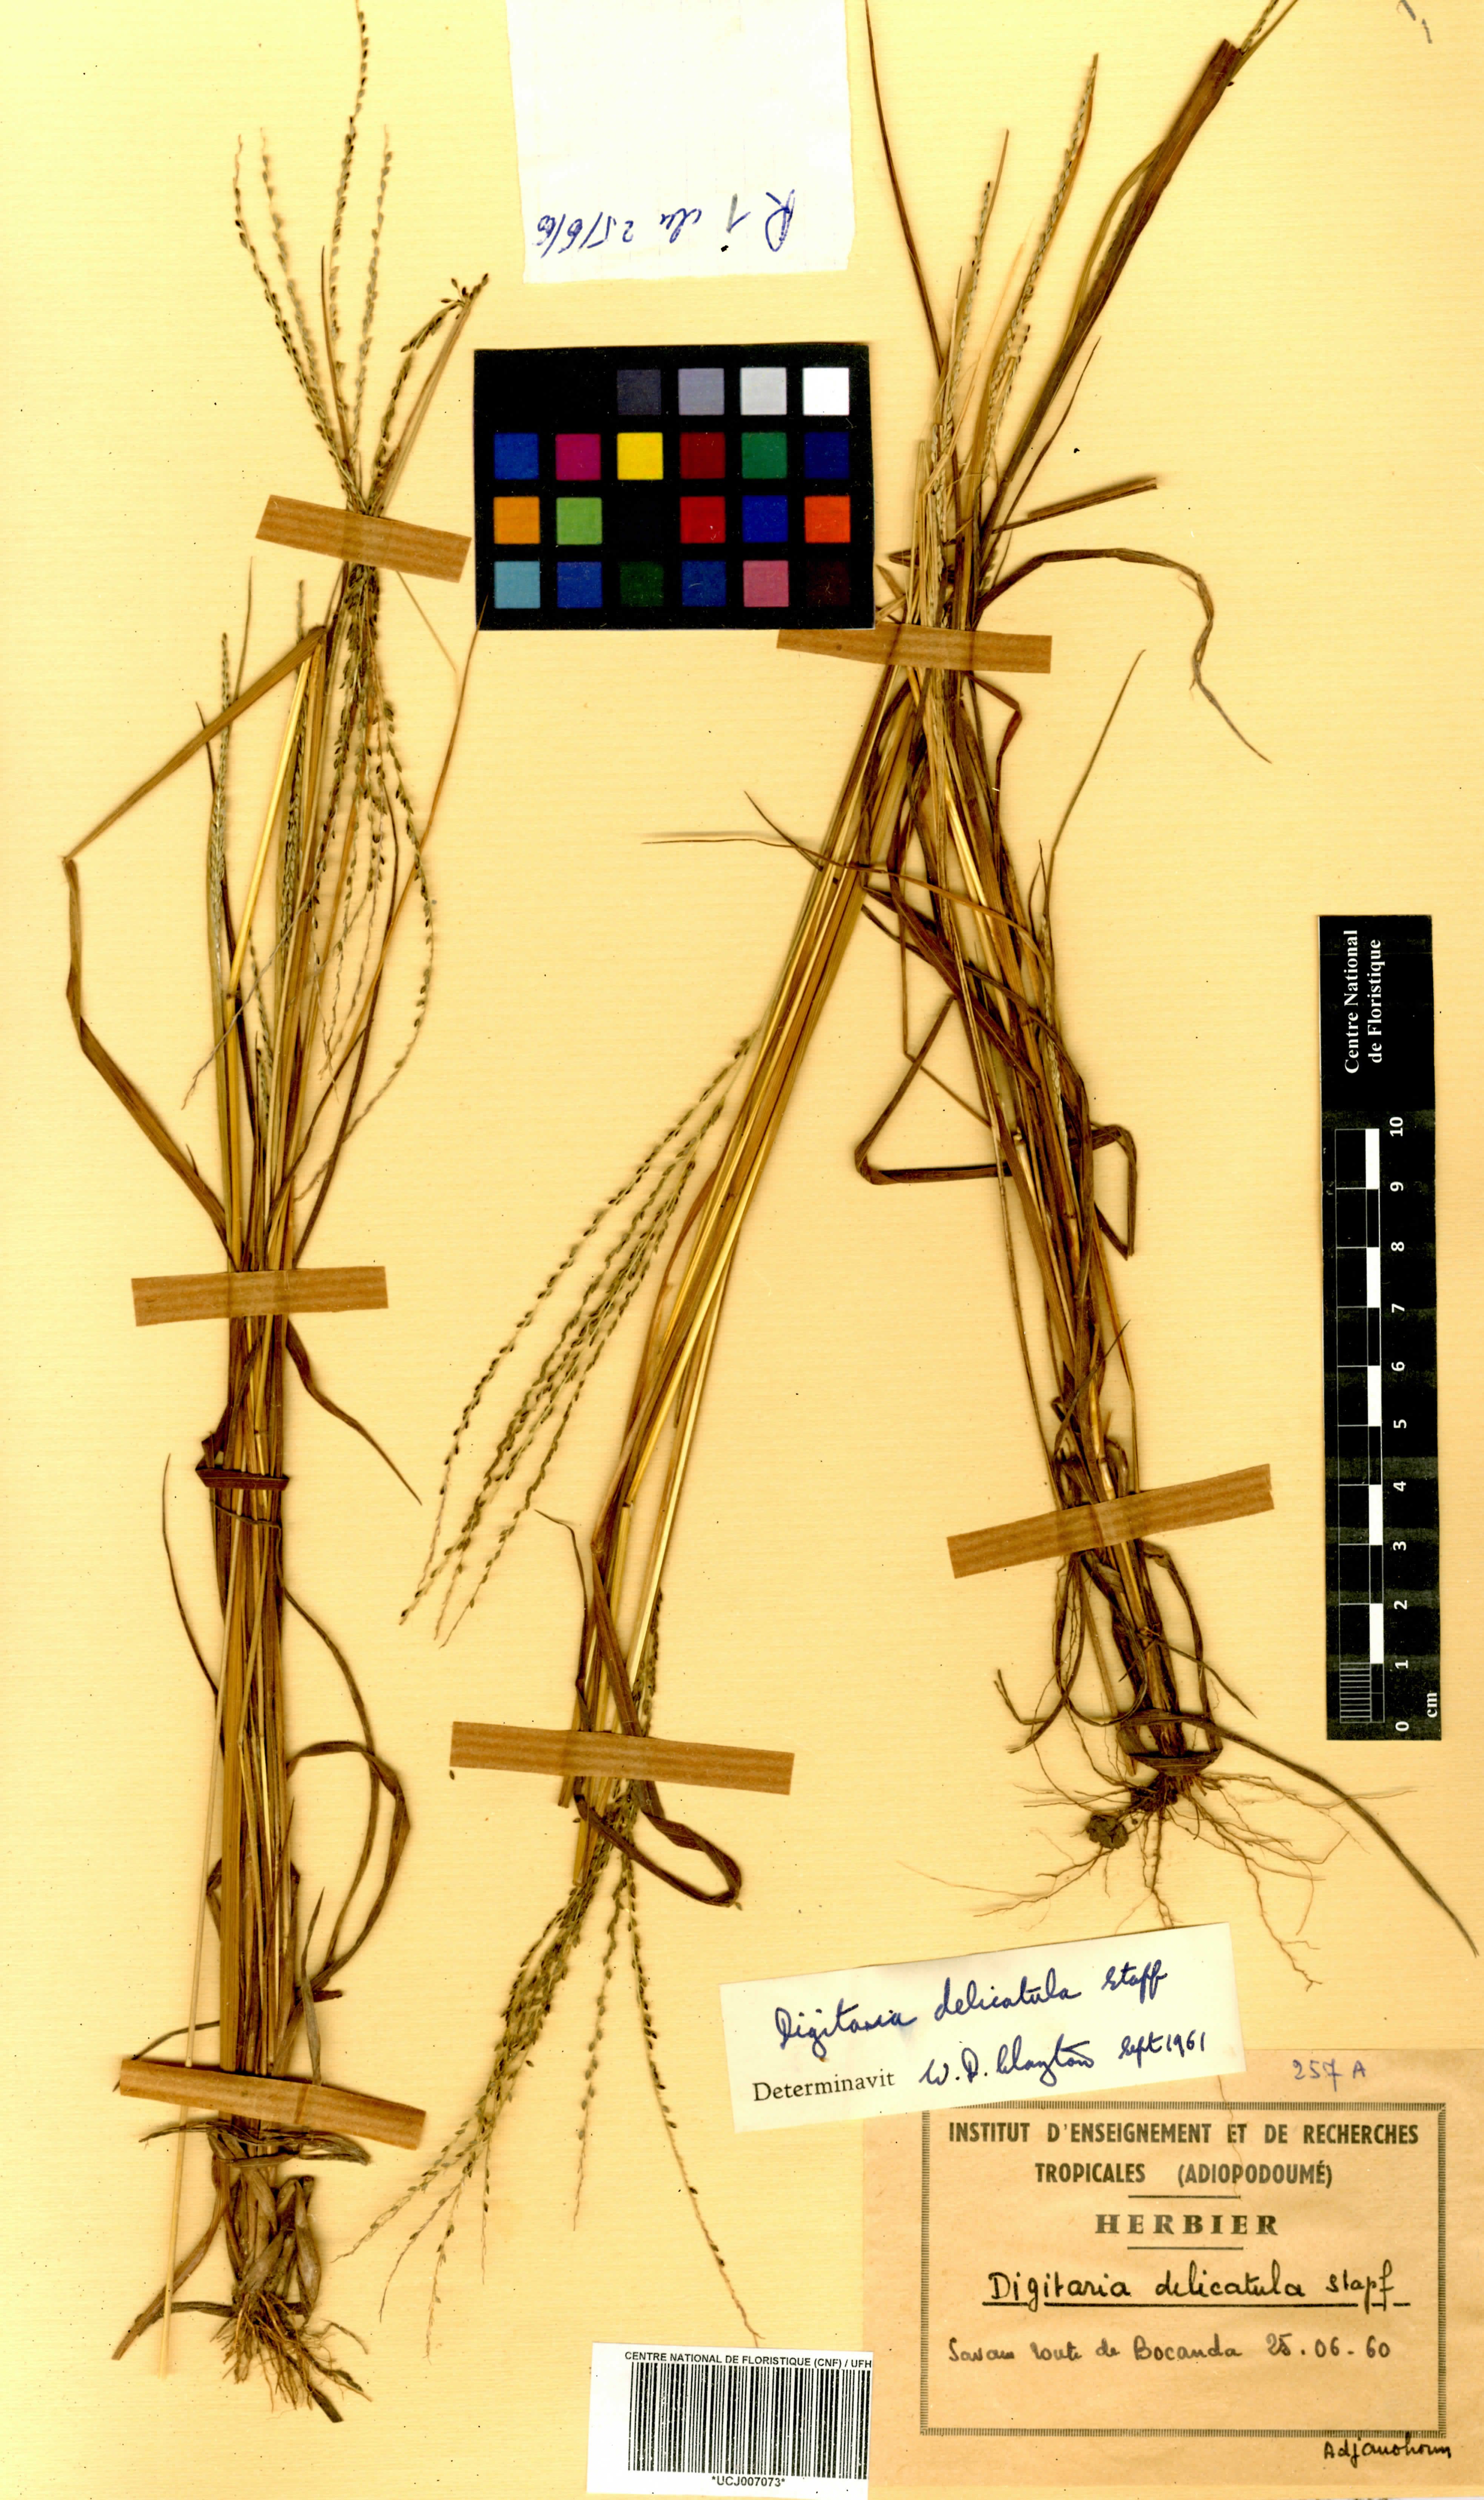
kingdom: Plantae
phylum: Tracheophyta
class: Liliopsida
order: Poales
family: Poaceae
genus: Digitaria
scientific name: Digitaria delicatula
